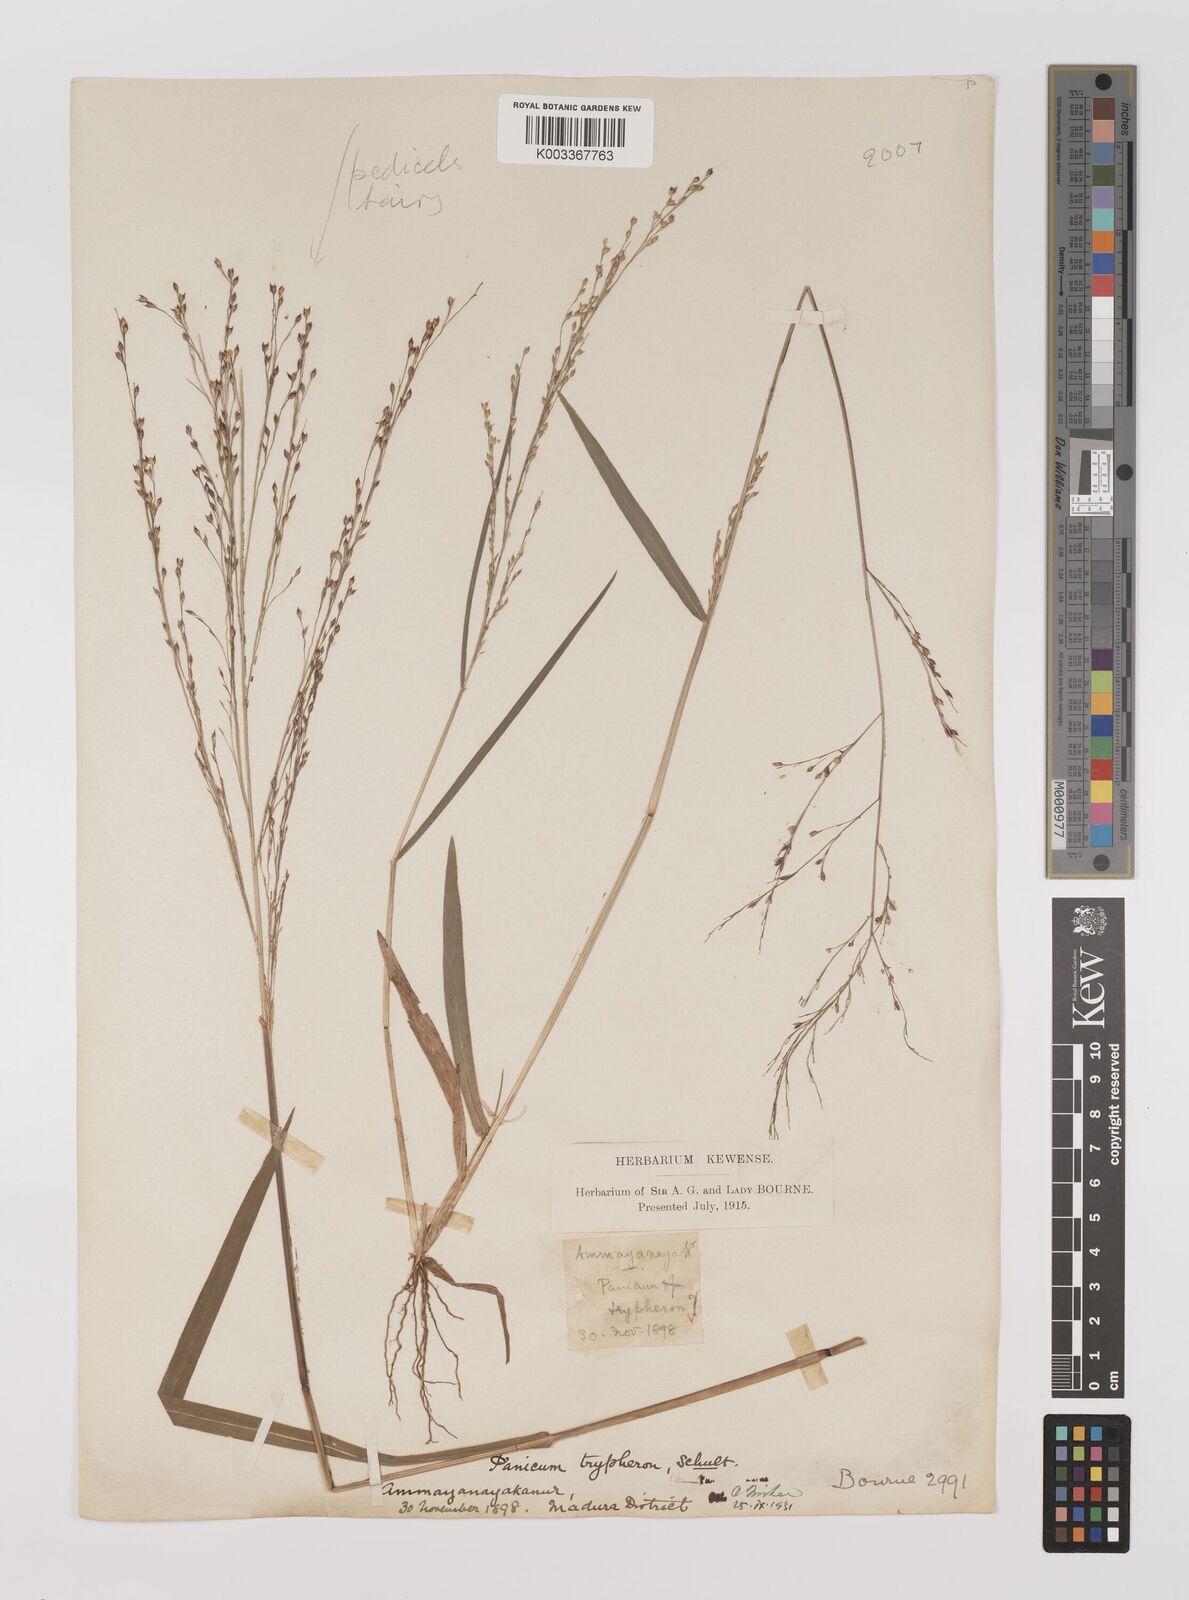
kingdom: Plantae
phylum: Tracheophyta
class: Liliopsida
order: Poales
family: Poaceae
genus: Panicum
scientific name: Panicum curviflorum
